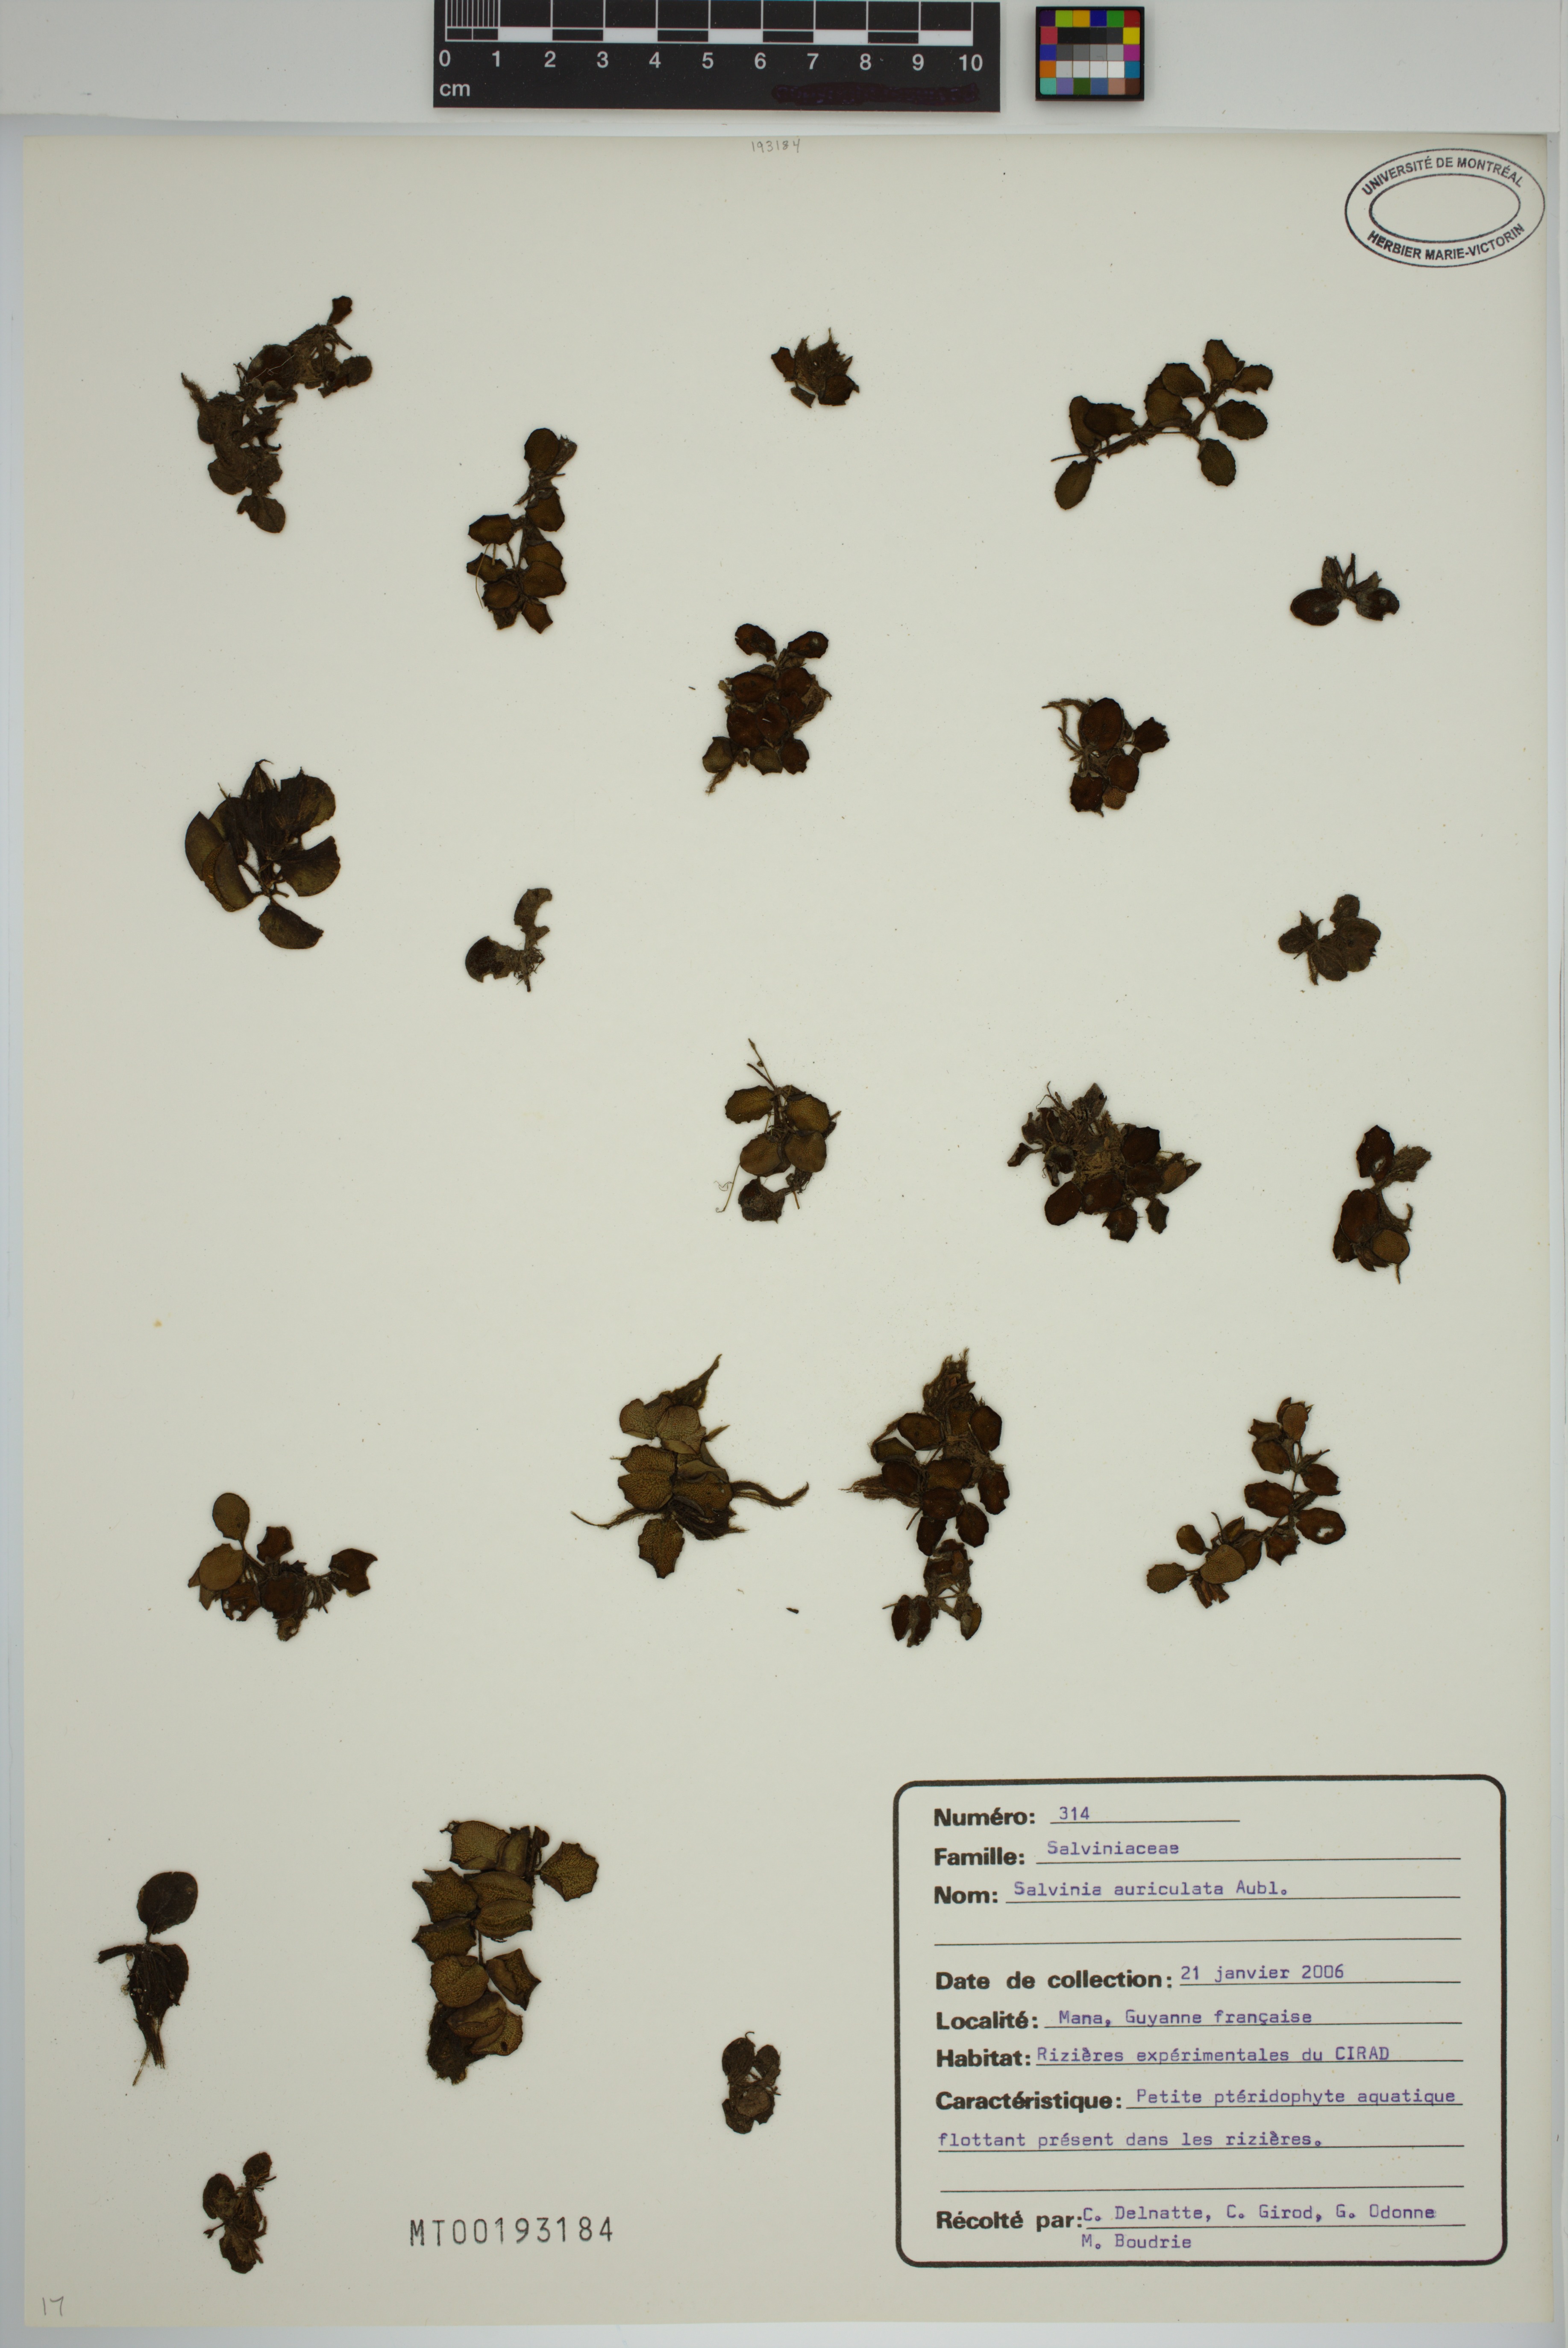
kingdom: Plantae
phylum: Tracheophyta
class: Polypodiopsida
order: Salviniales
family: Salviniaceae
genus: Salvinia
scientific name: Salvinia auriculata
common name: African payal
